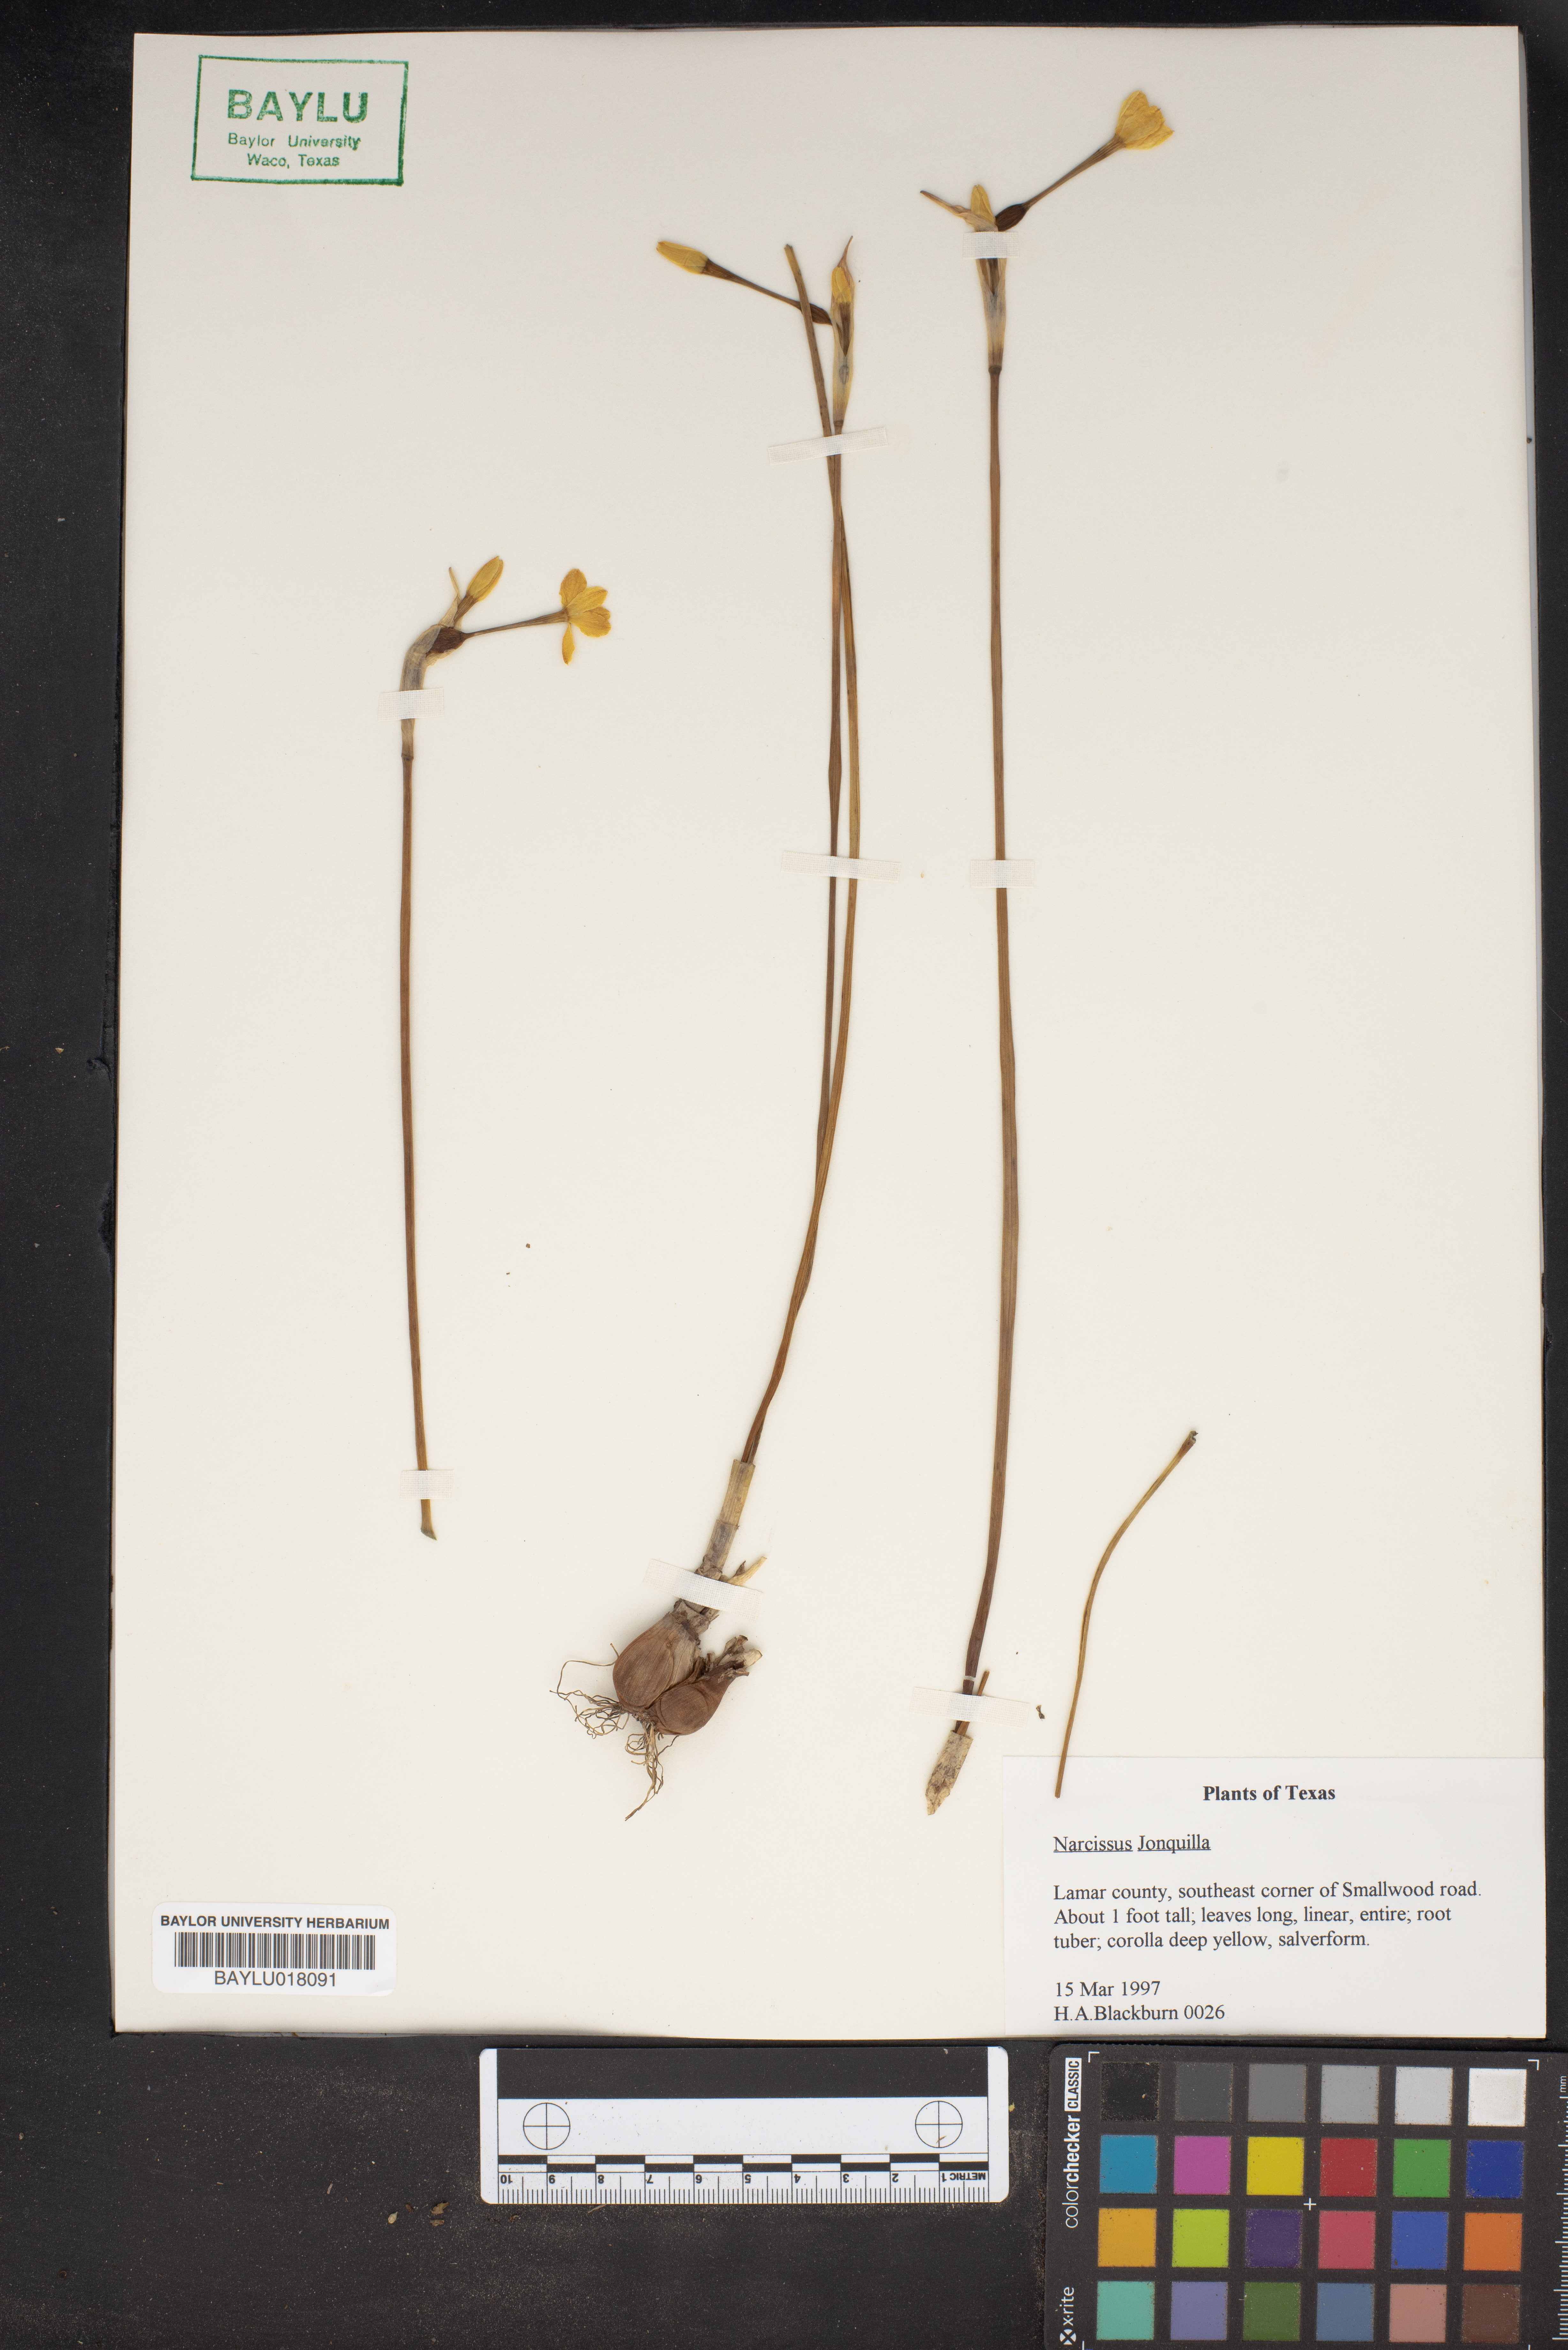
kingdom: Plantae
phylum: Tracheophyta
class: Liliopsida
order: Asparagales
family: Amaryllidaceae
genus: Narcissus
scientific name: Narcissus jonquilla
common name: Jonquil
